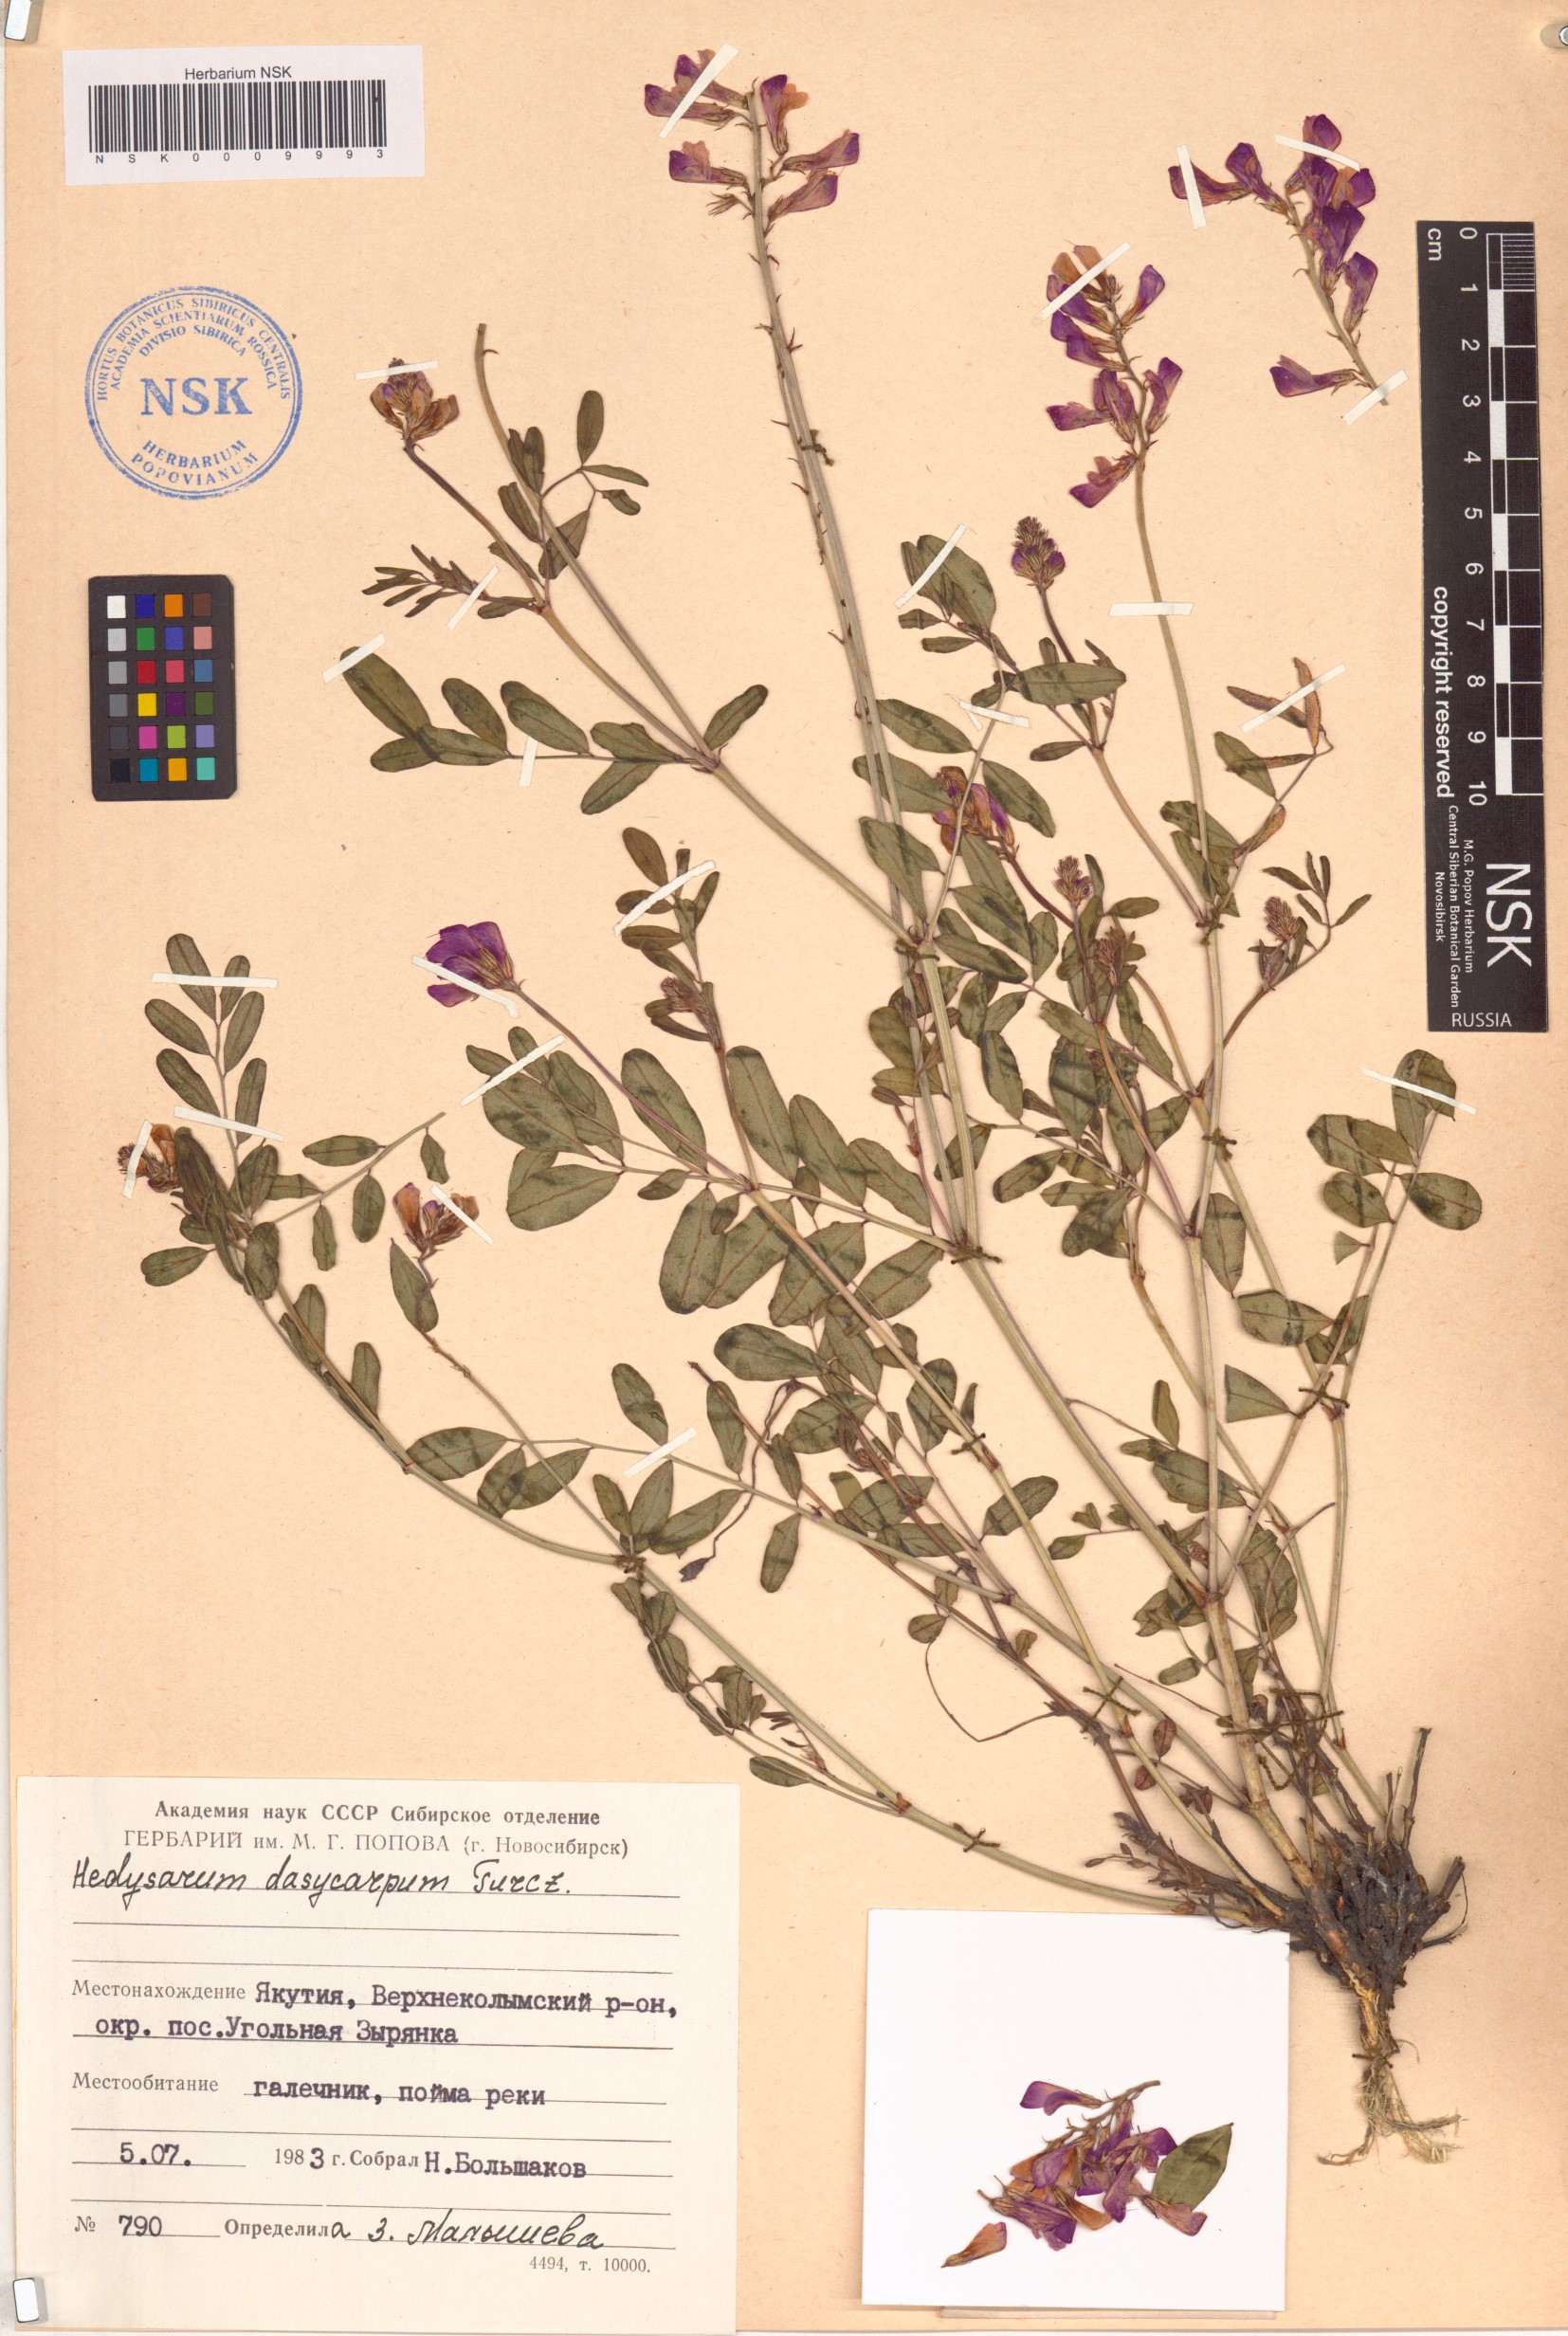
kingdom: Plantae
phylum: Tracheophyta
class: Magnoliopsida
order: Fabales
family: Fabaceae
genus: Hedysarum
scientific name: Hedysarum dasycarpum
